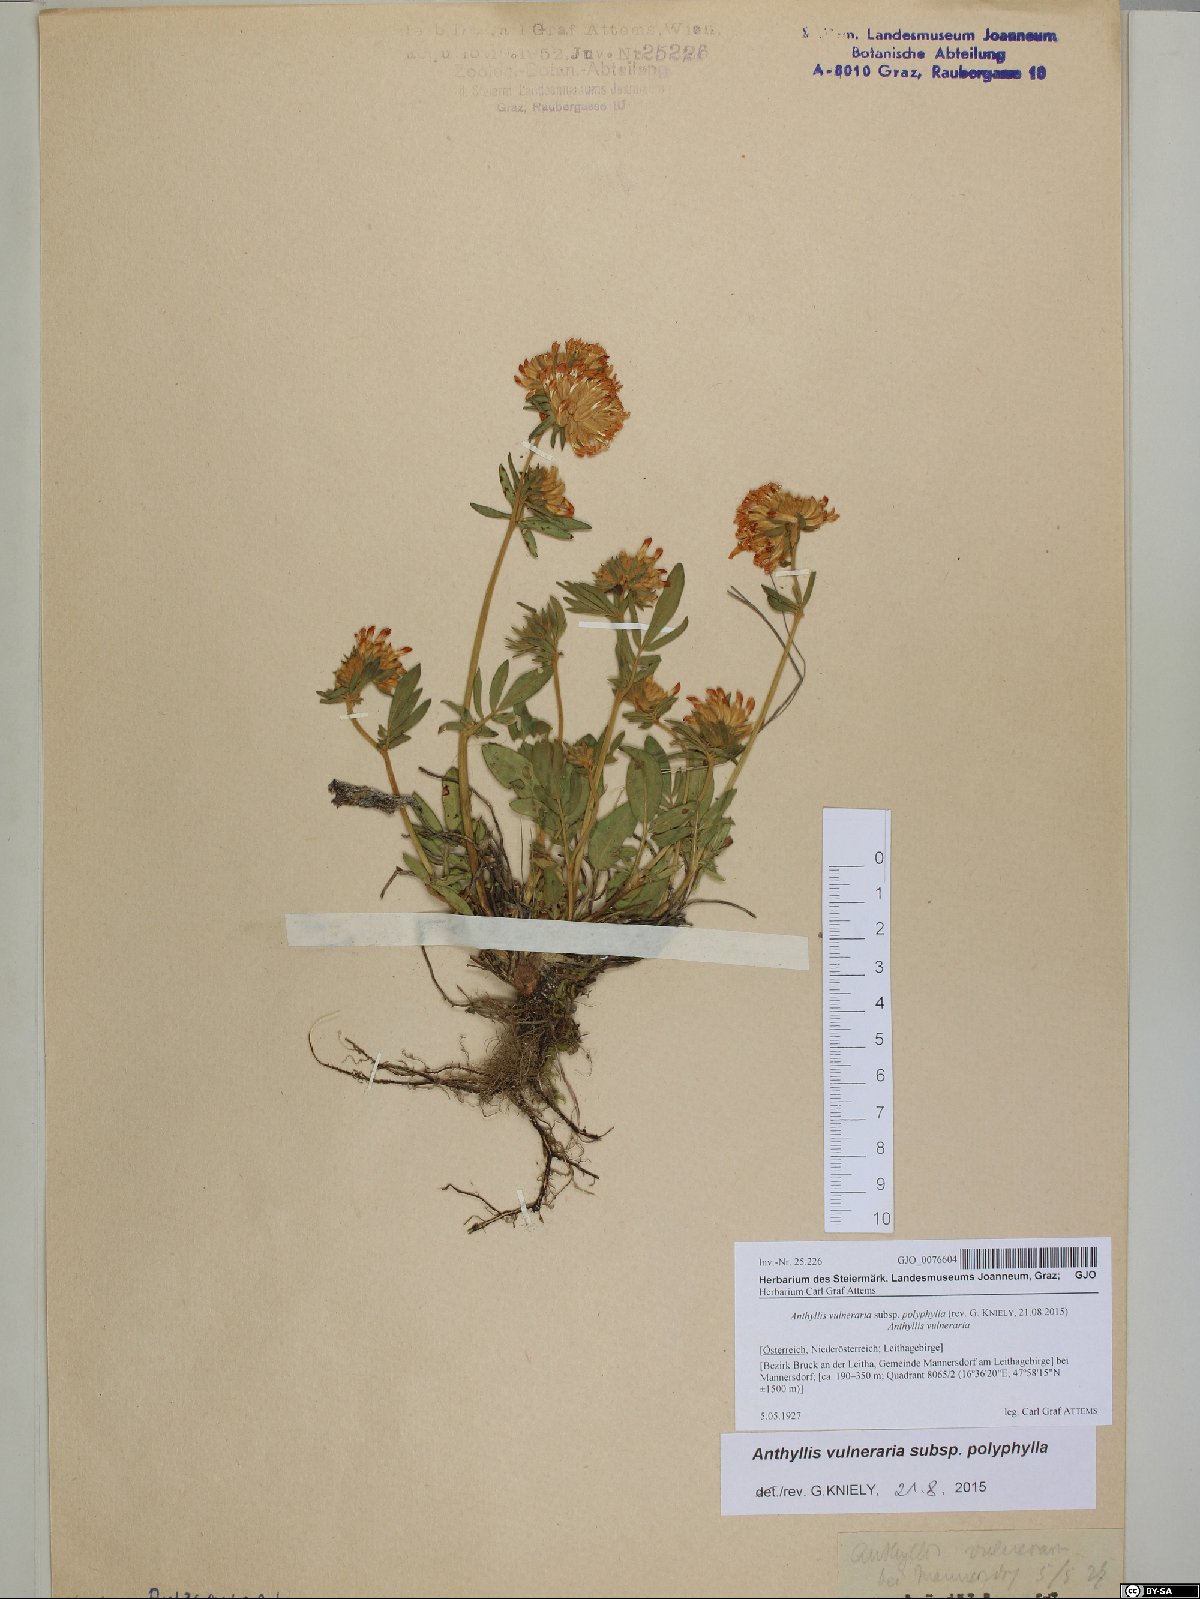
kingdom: Plantae
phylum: Tracheophyta
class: Magnoliopsida
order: Fabales
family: Fabaceae
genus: Anthyllis
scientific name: Anthyllis vulneraria
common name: Kidney vetch
